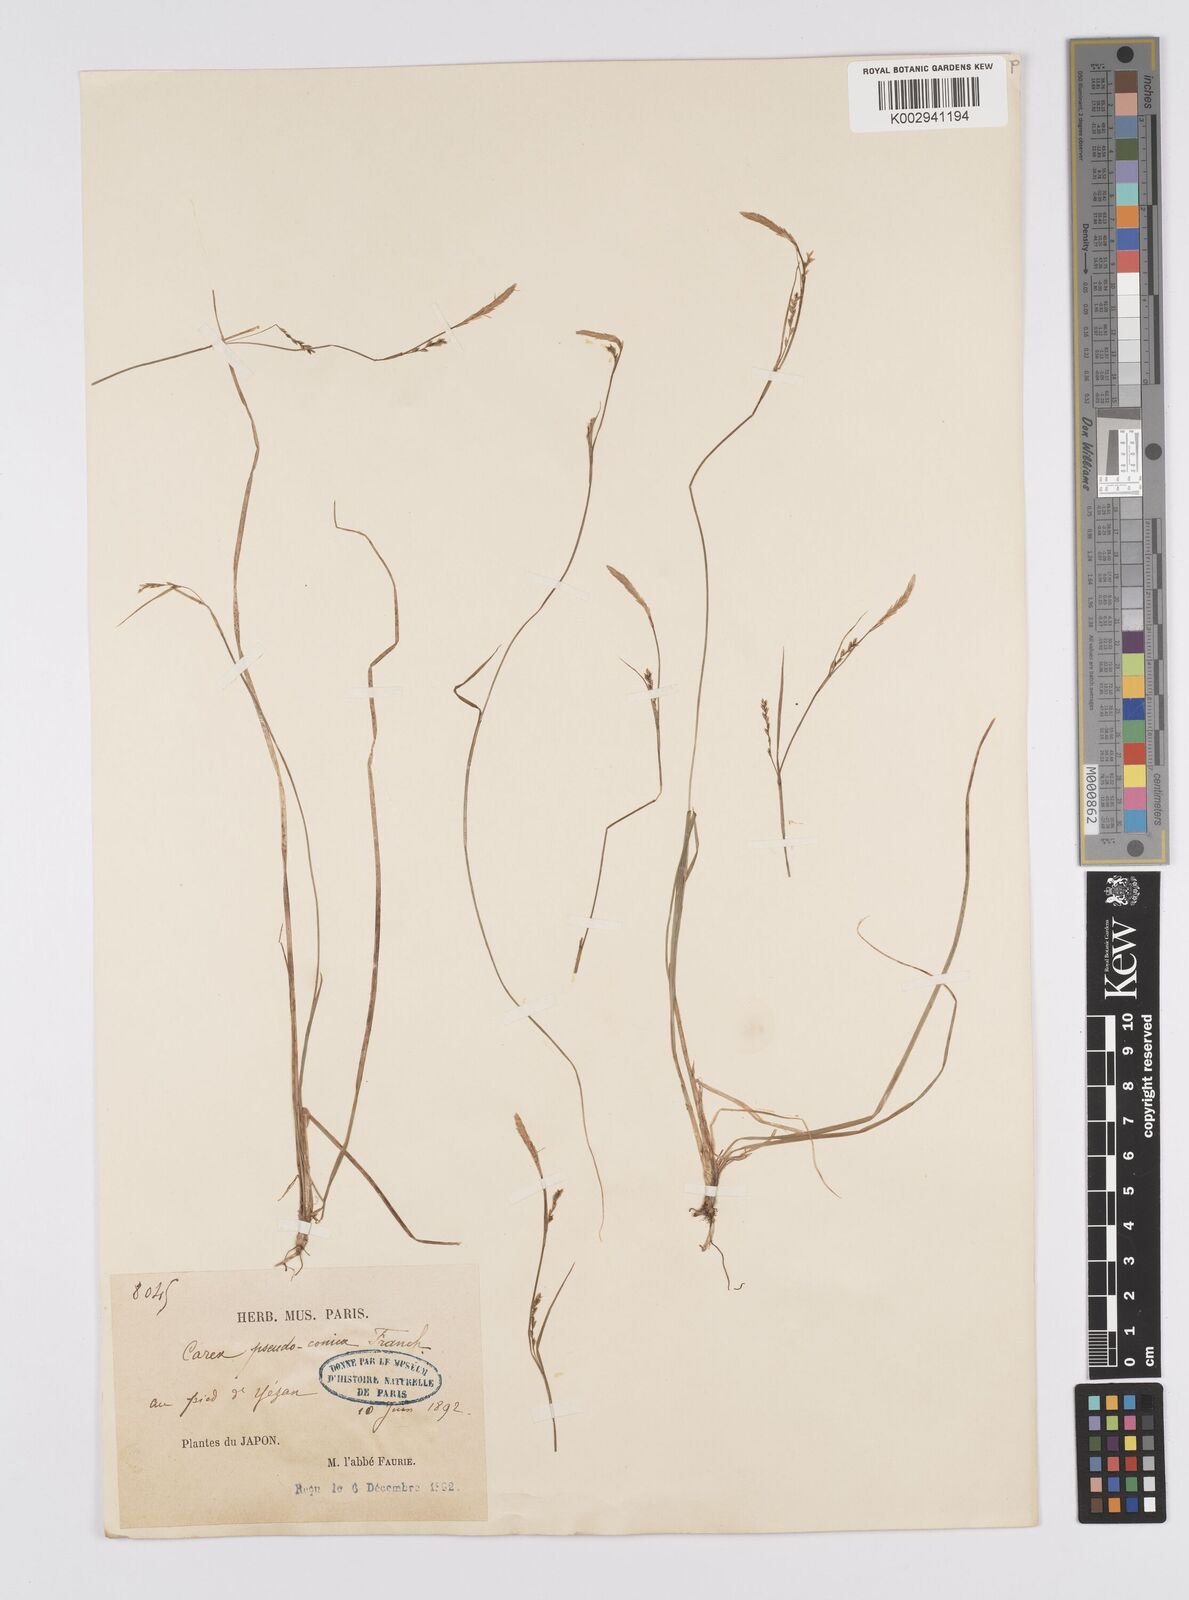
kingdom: Plantae
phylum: Tracheophyta
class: Liliopsida
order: Poales
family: Cyperaceae
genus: Carex
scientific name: Carex pisiformis
